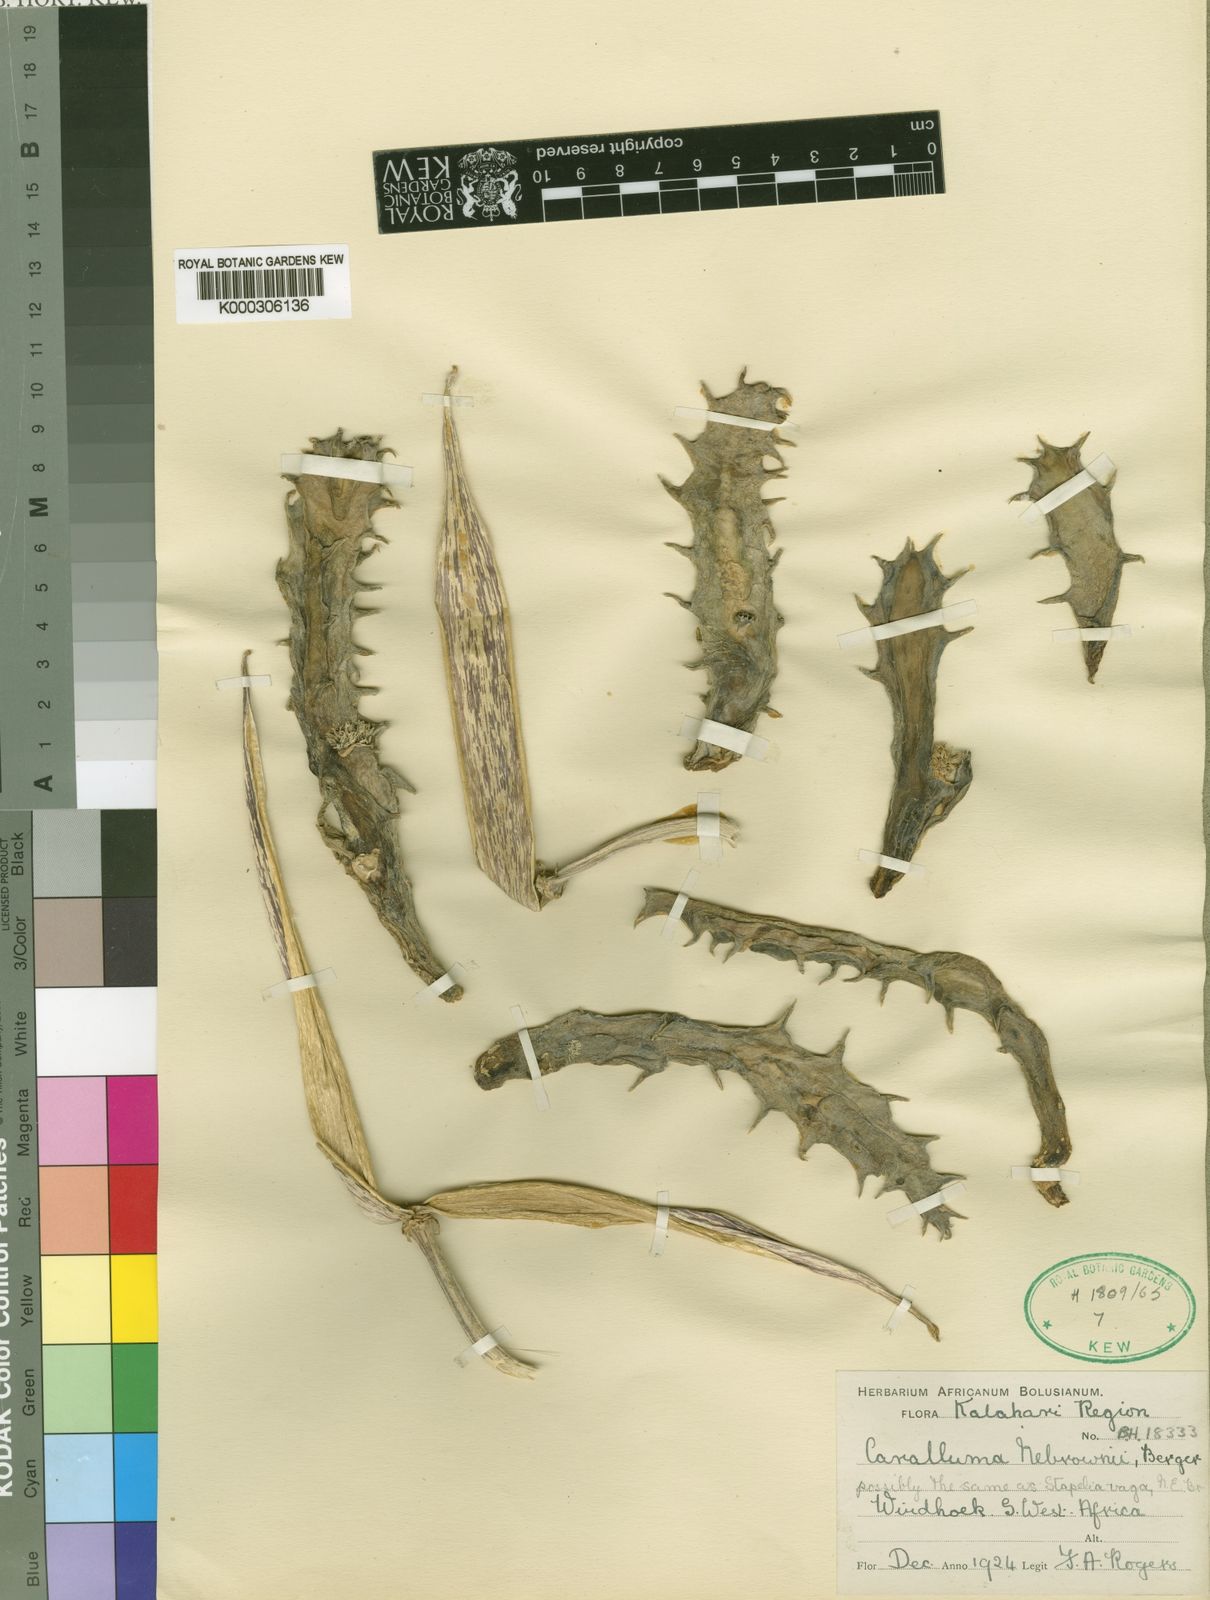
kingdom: Plantae
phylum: Tracheophyta
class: Magnoliopsida
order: Gentianales
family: Apocynaceae
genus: Ceropegia
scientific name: Ceropegia lutea
